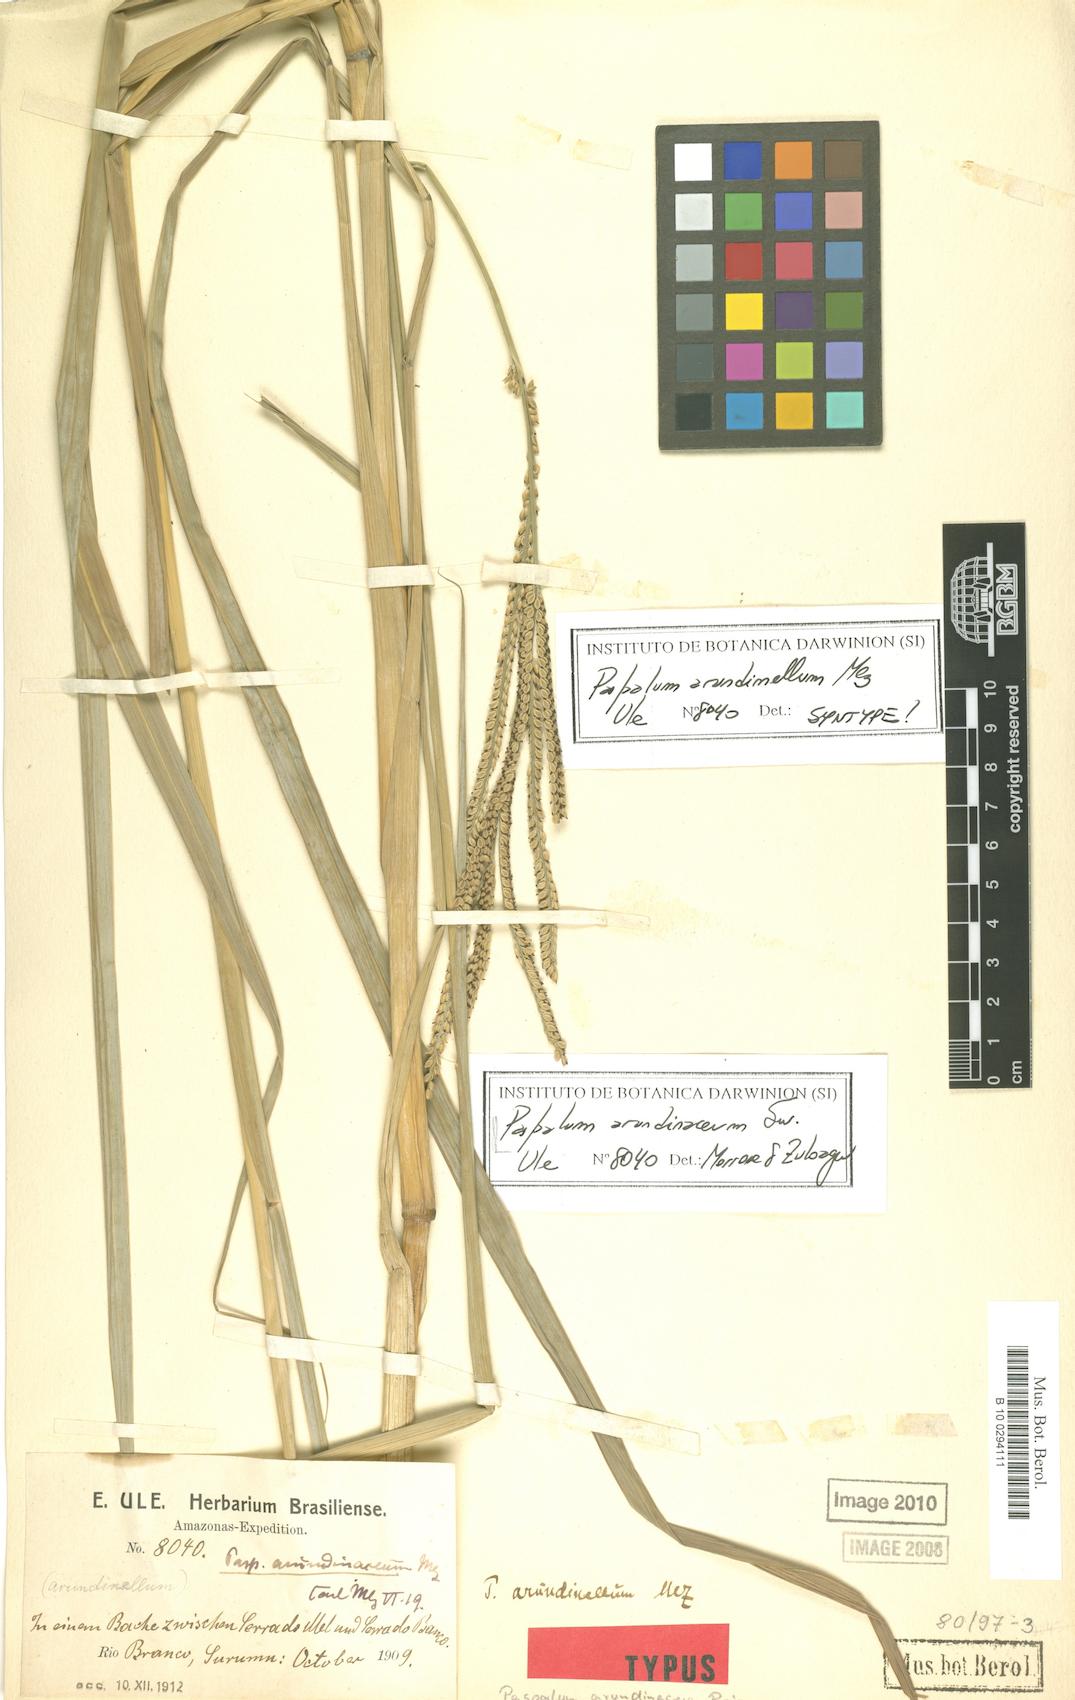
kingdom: Plantae
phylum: Tracheophyta
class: Liliopsida
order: Poales
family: Poaceae
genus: Paspalum
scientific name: Paspalum arundinellum
